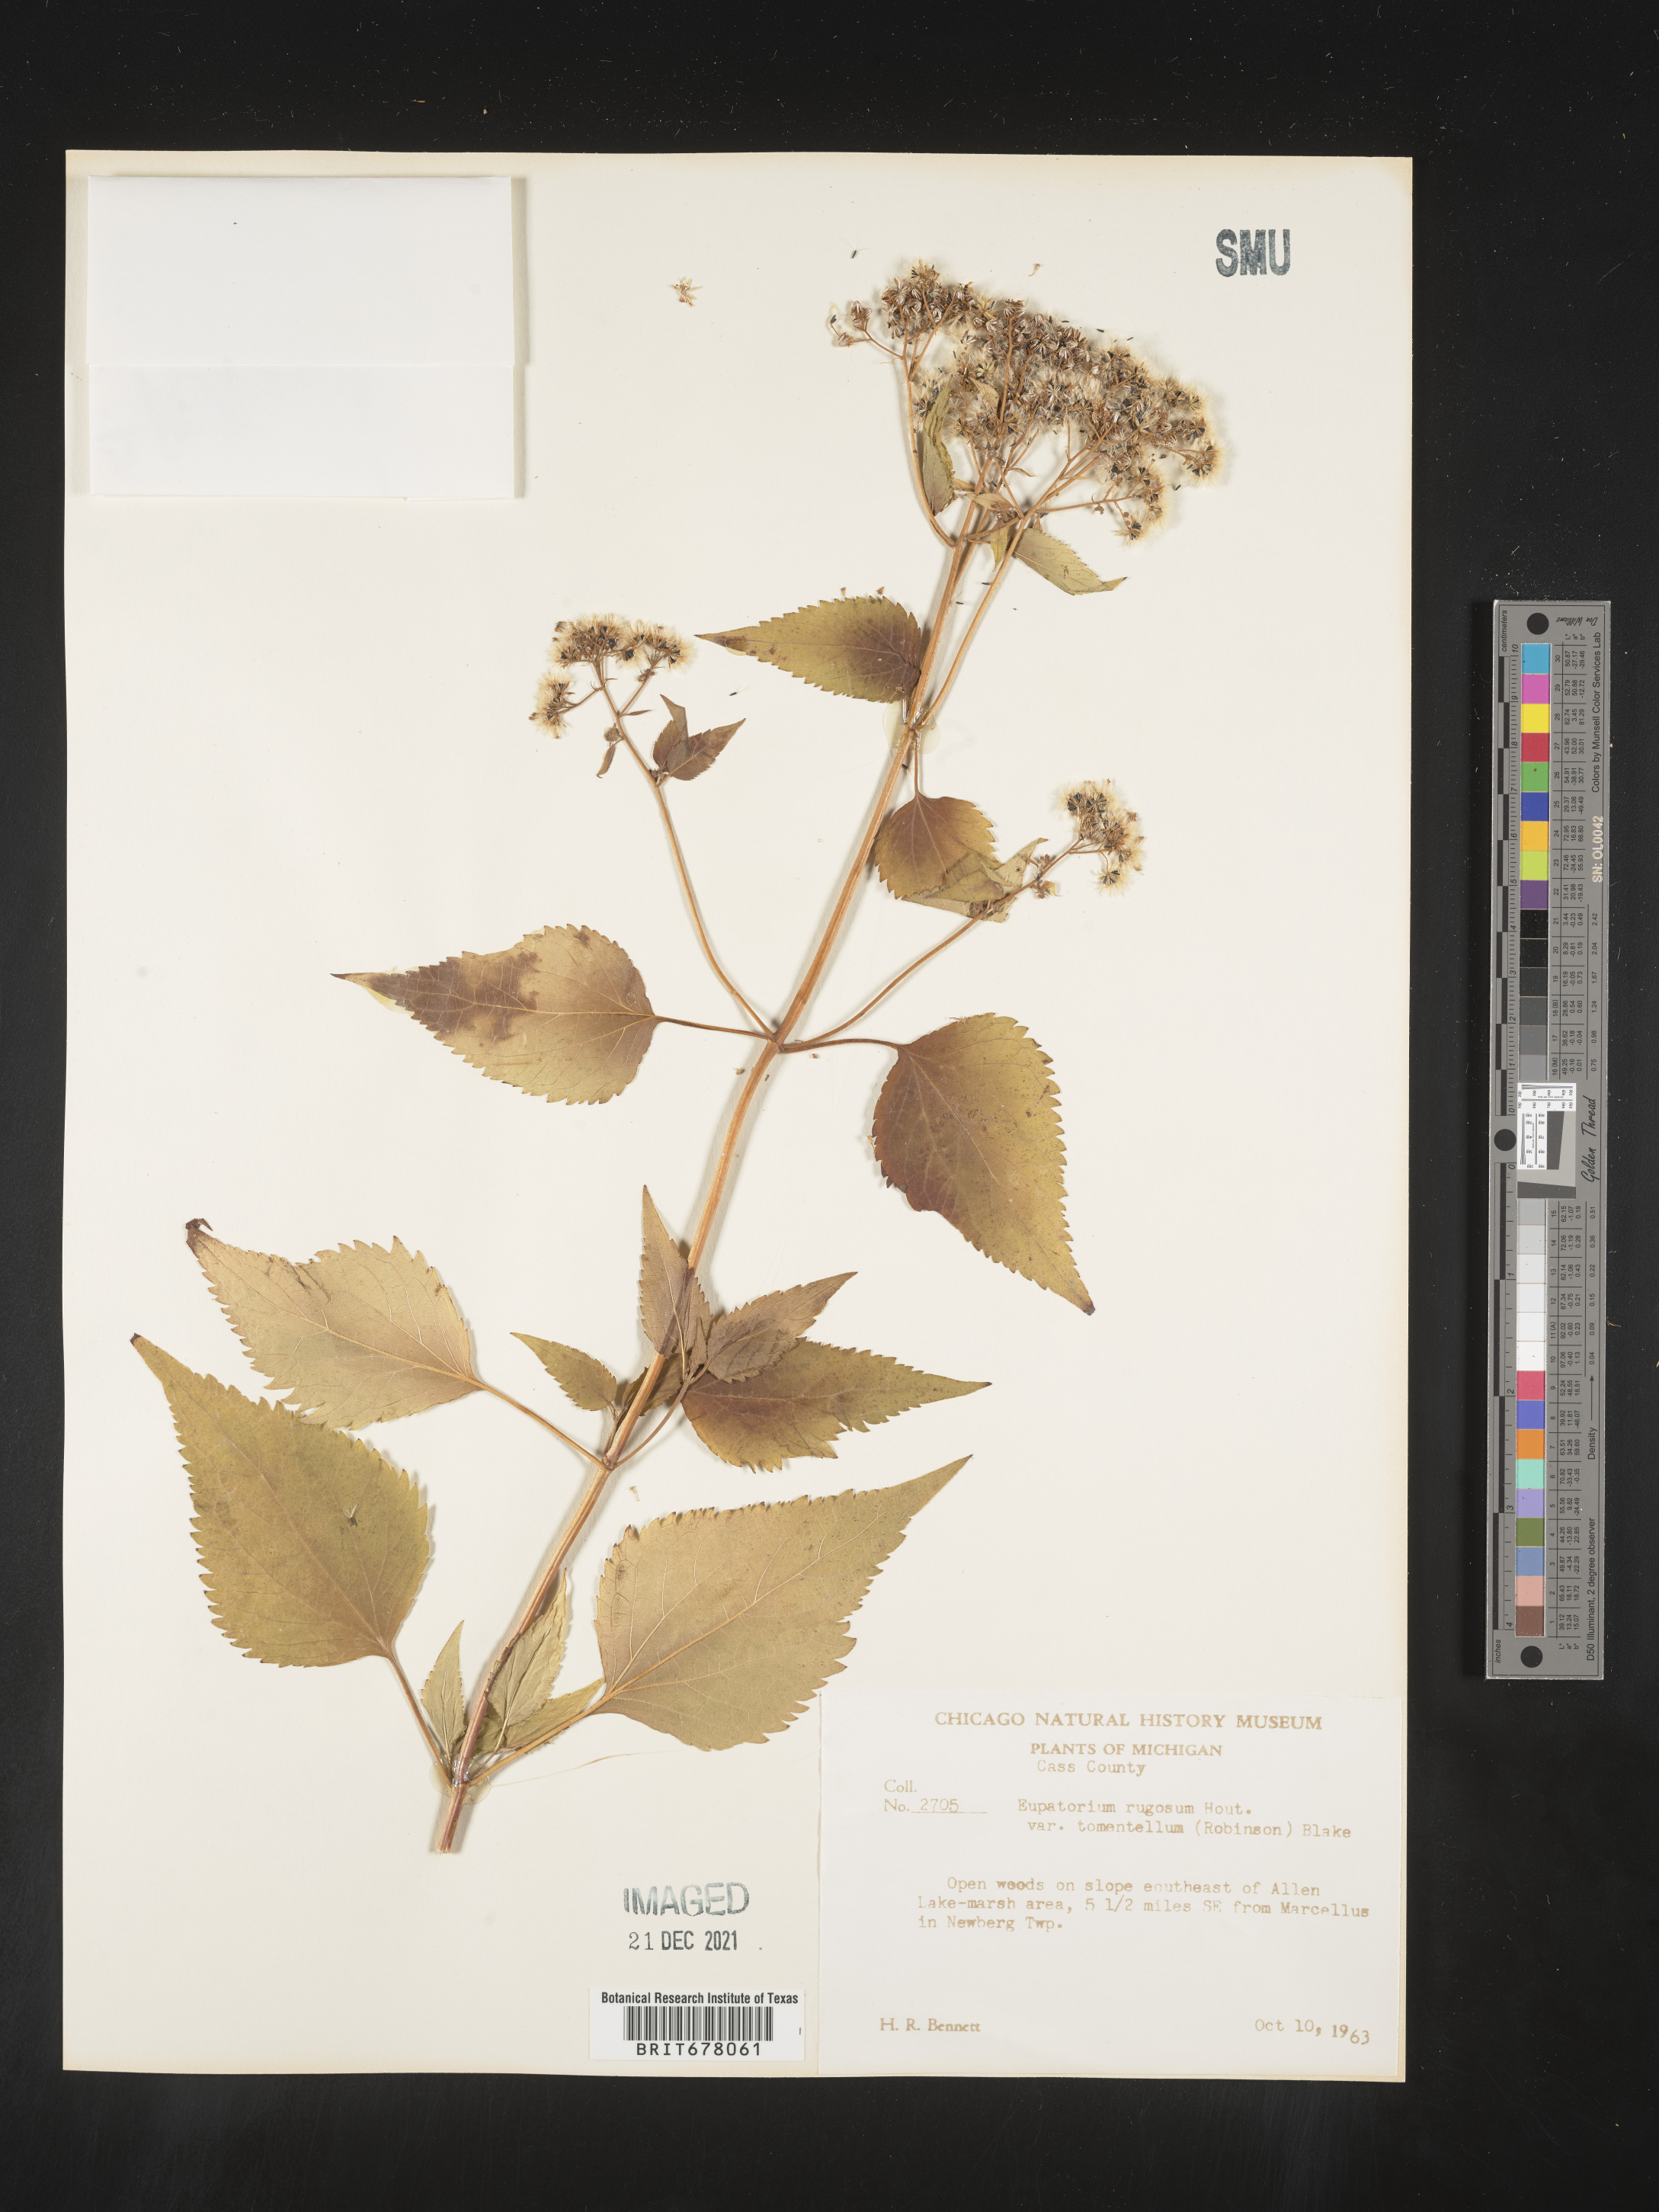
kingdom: Plantae
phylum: Tracheophyta
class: Magnoliopsida
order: Asterales
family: Asteraceae
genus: Eupatorium
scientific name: Eupatorium
